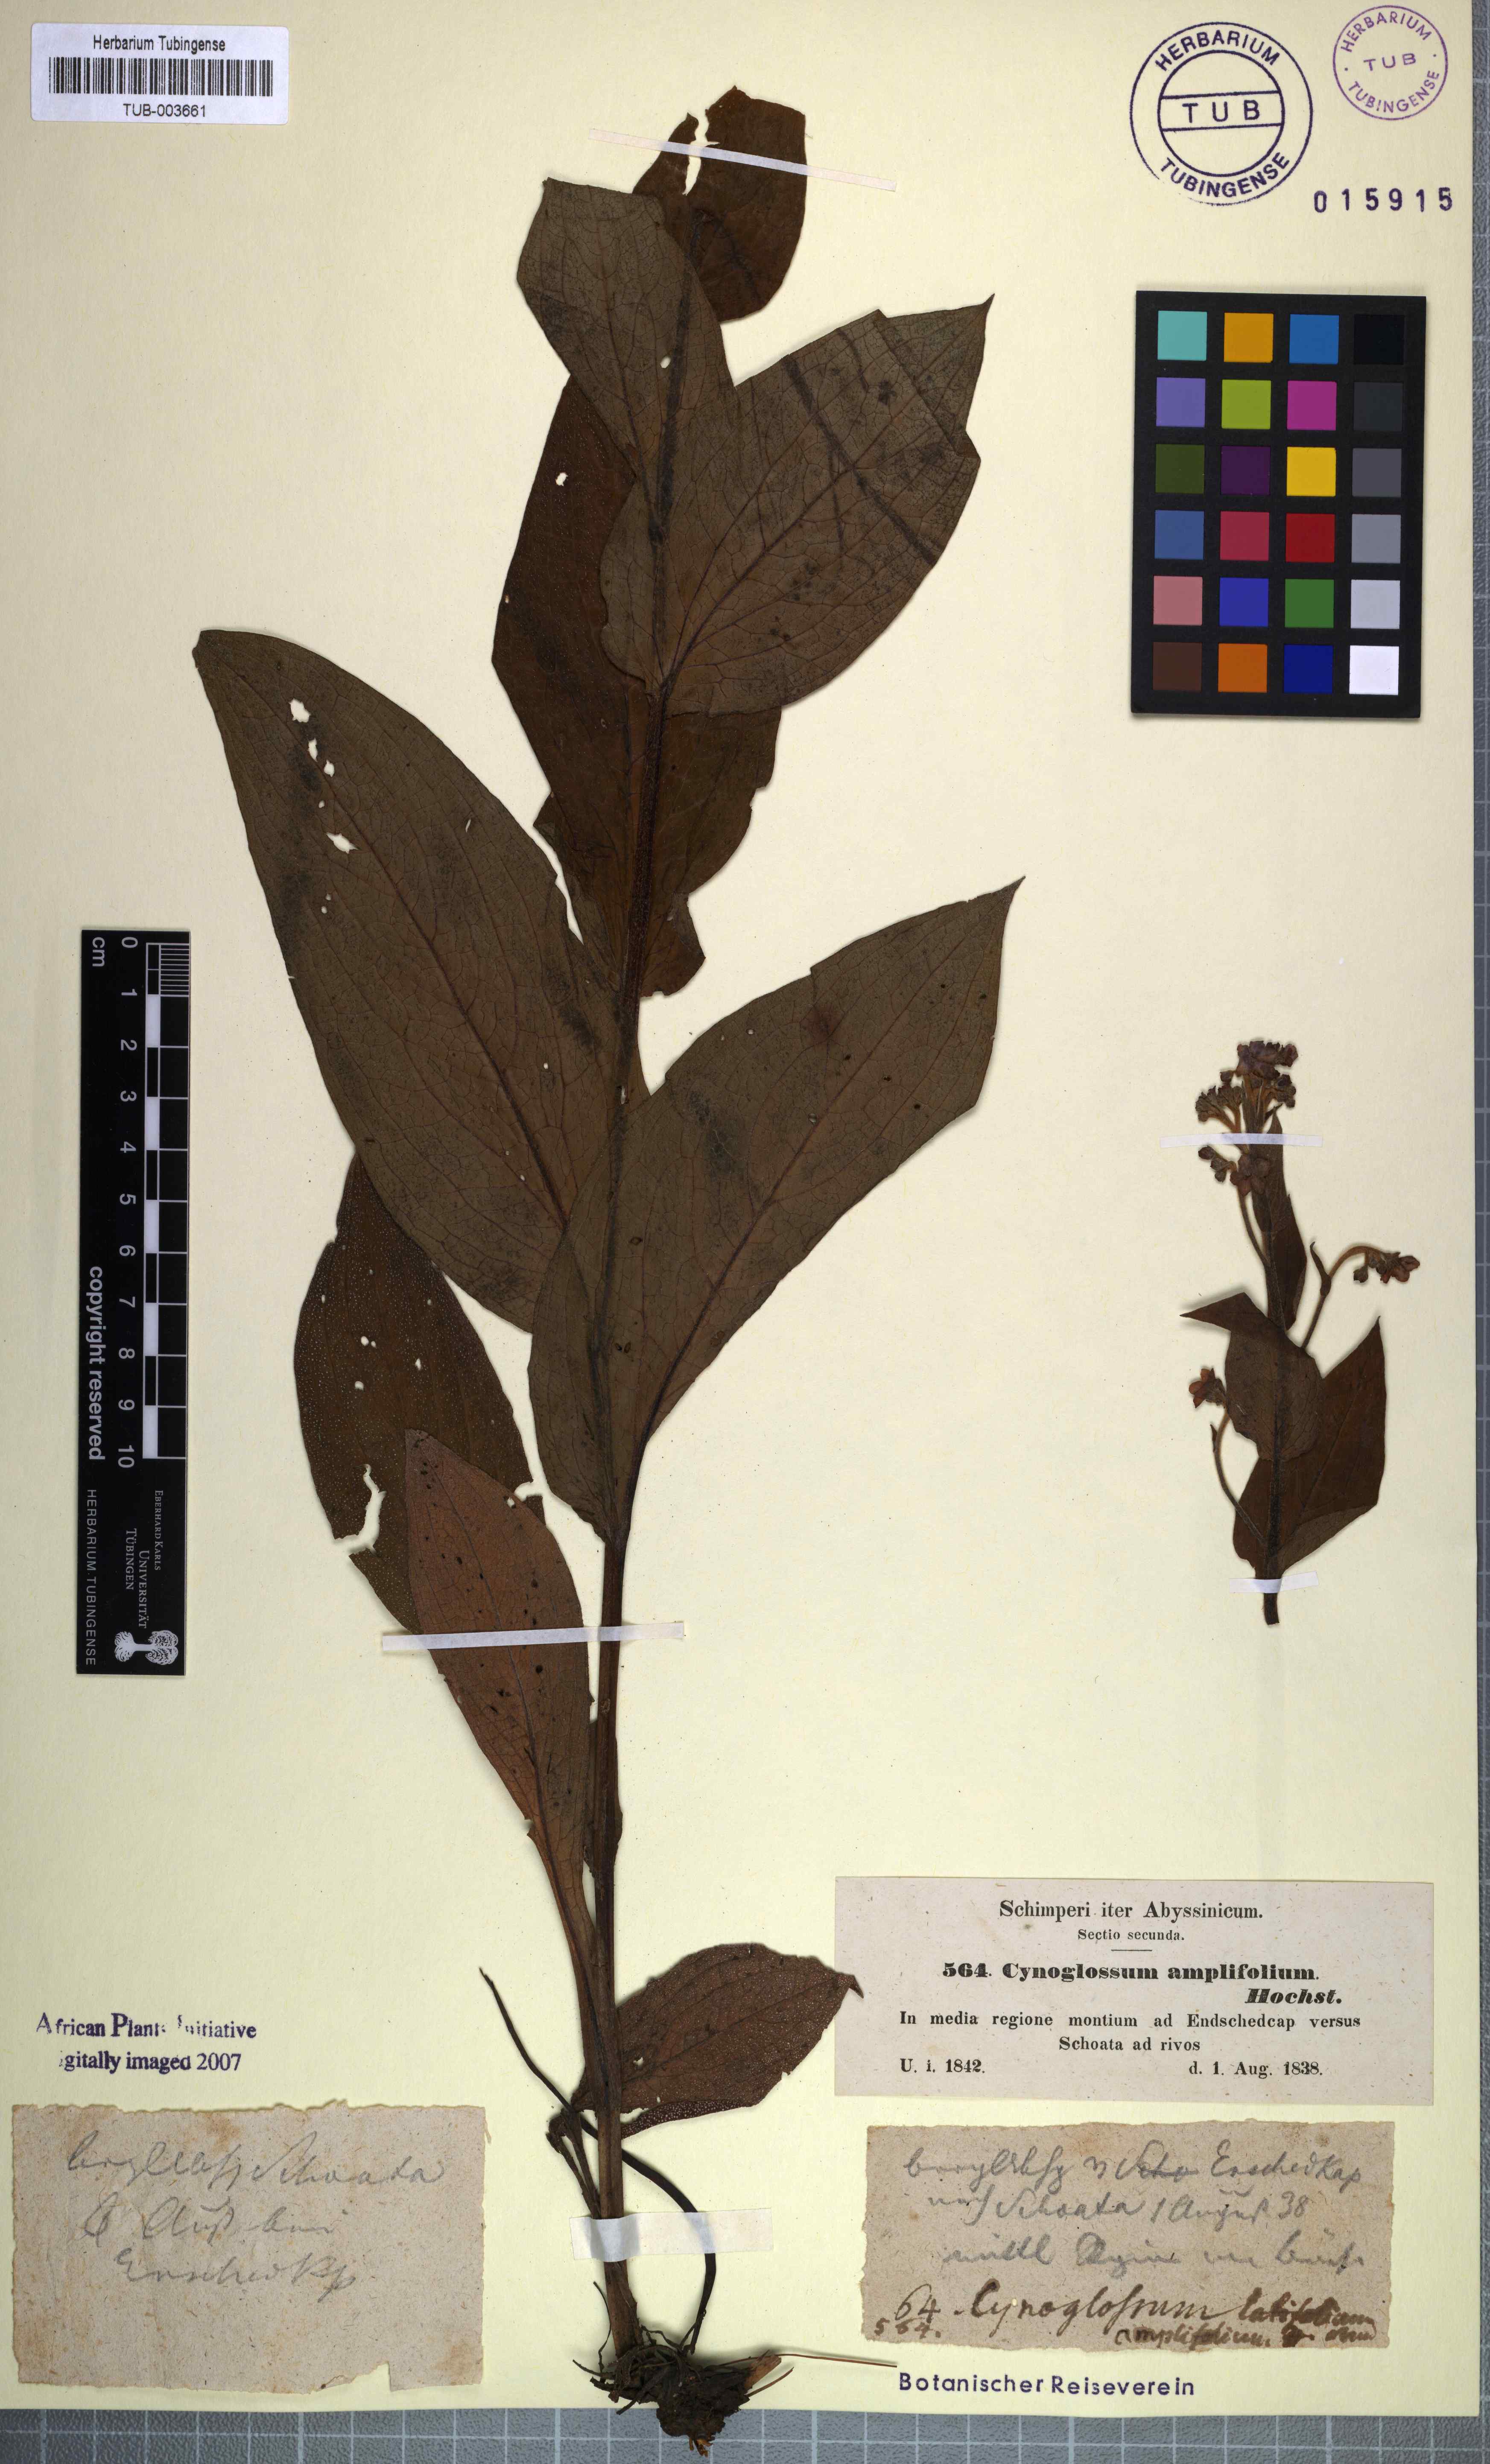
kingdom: Plantae
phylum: Tracheophyta
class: Magnoliopsida
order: Boraginales
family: Boraginaceae
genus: Cynoglossum
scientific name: Cynoglossum amplifolium
